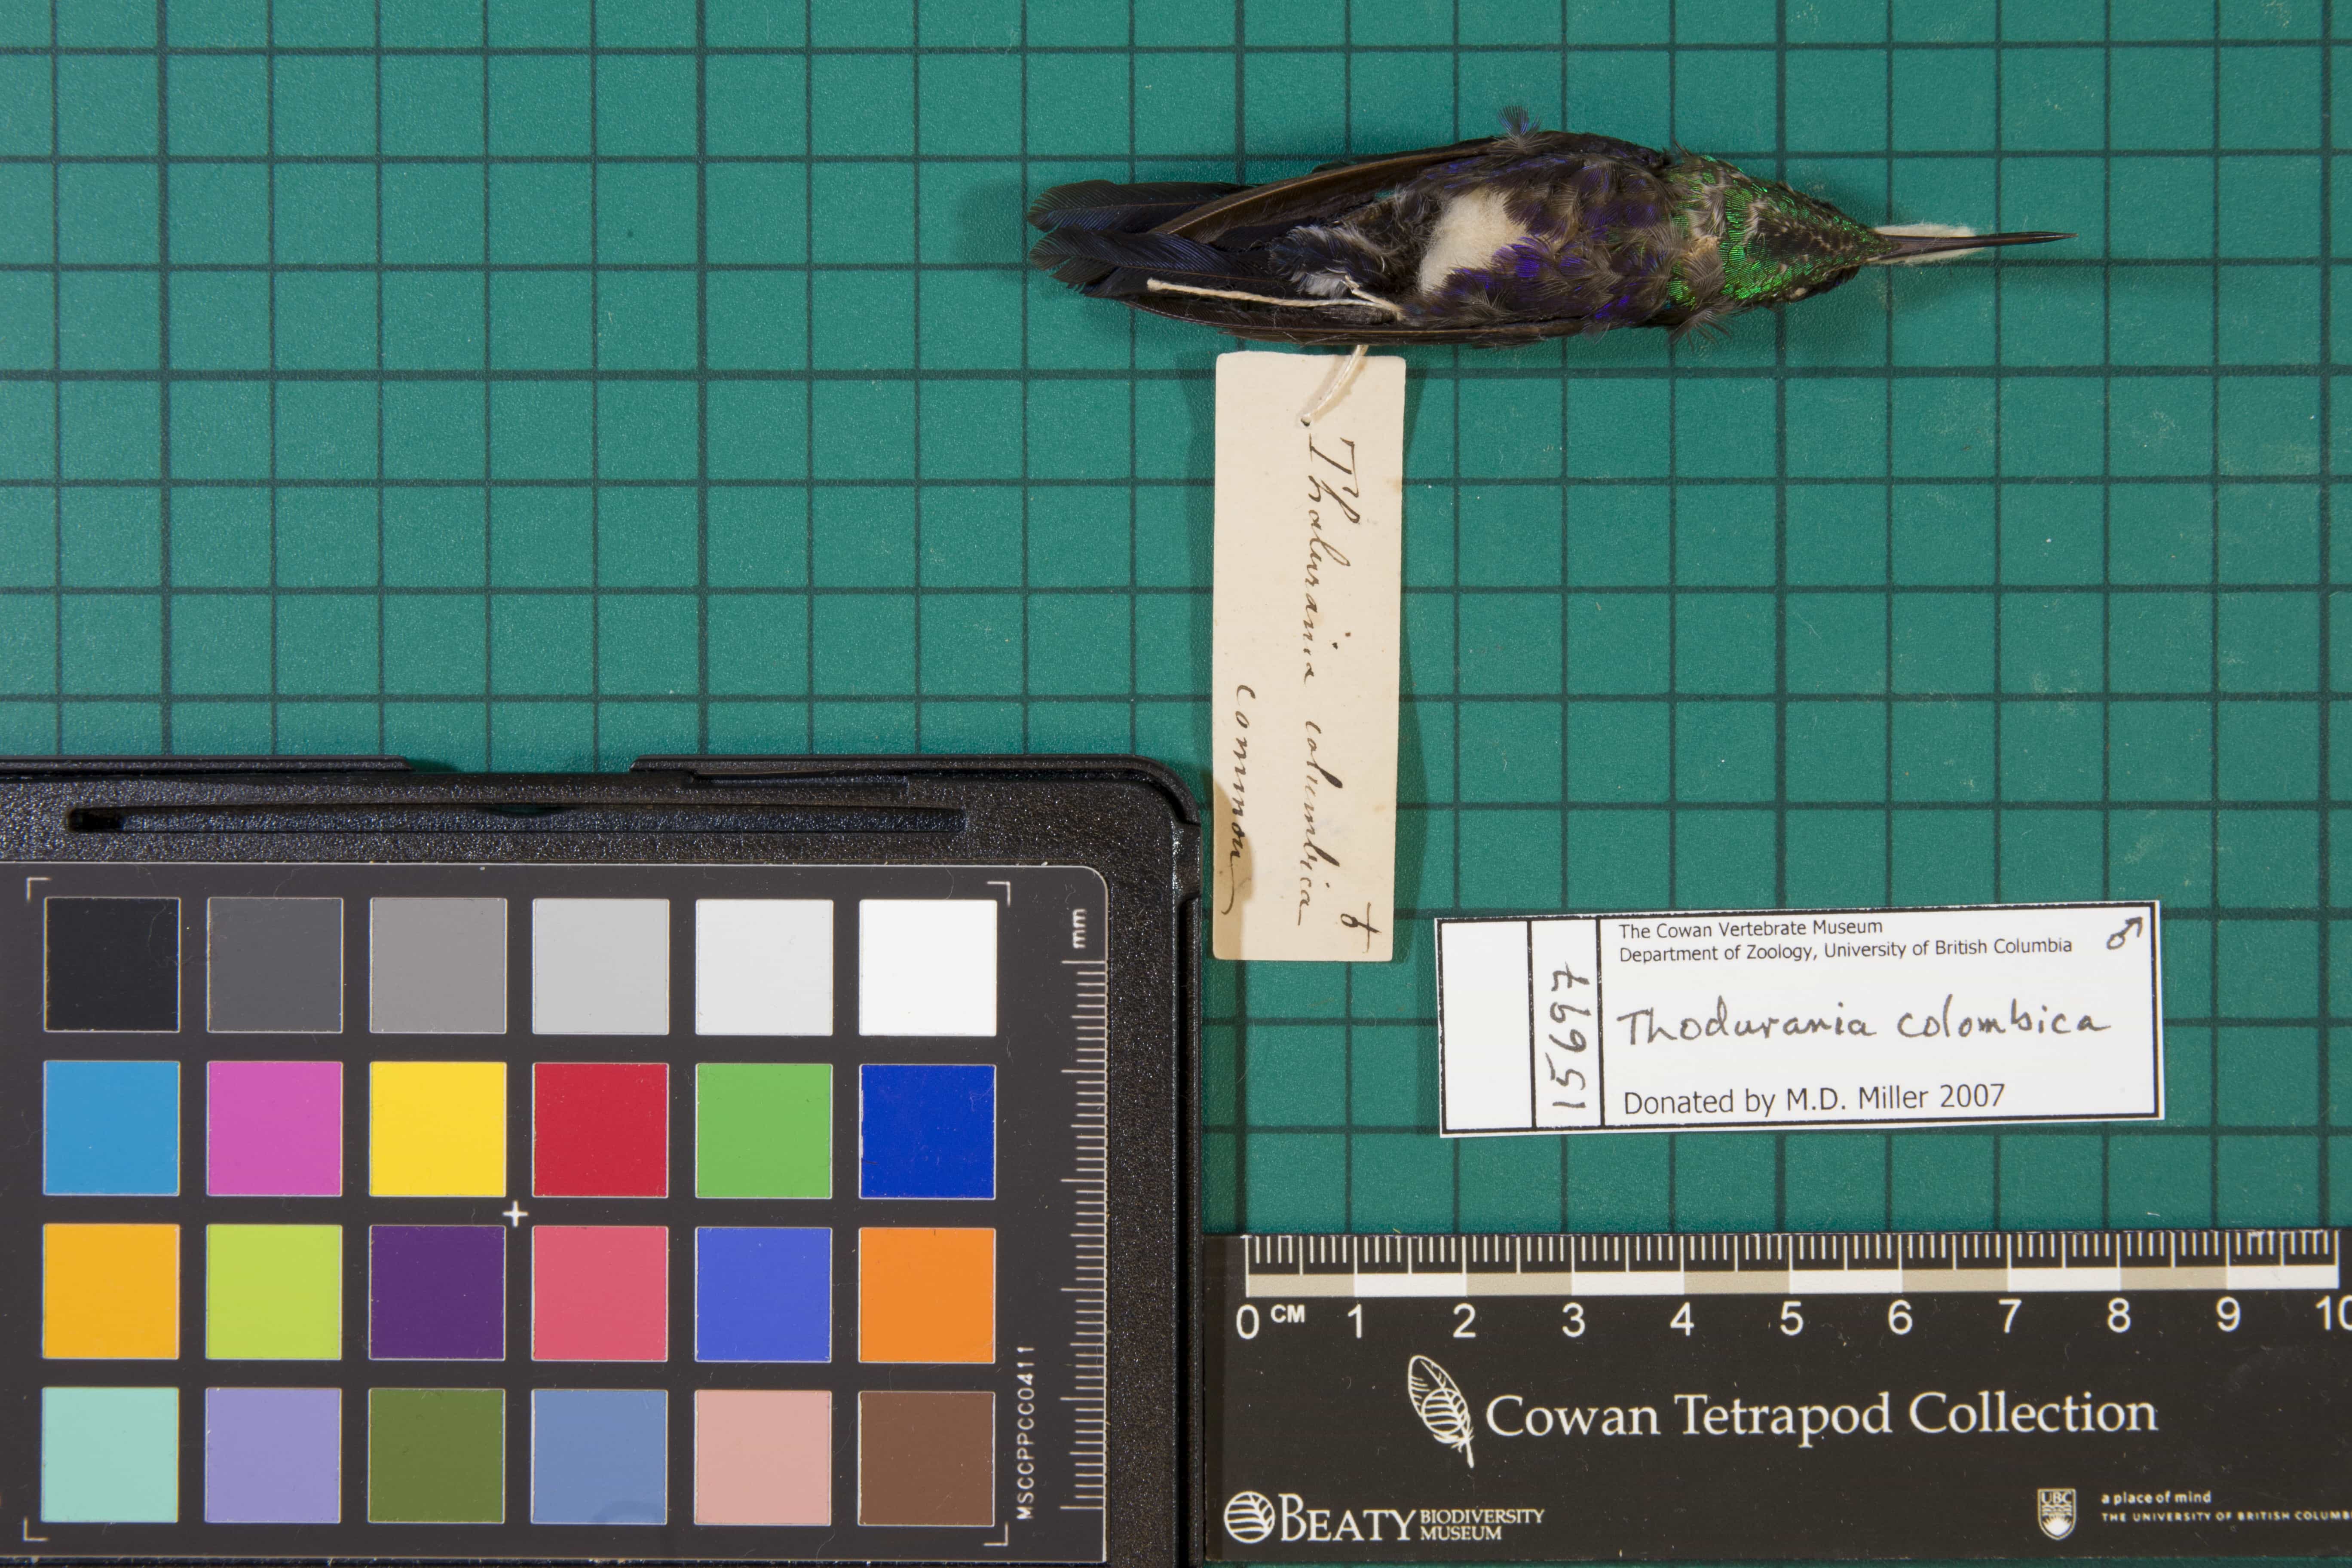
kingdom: Animalia
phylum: Chordata
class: Aves
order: Apodiformes
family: Trochilidae
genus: Thalurania
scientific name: Thalurania colombica
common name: Violet-crowned Woodnymph
